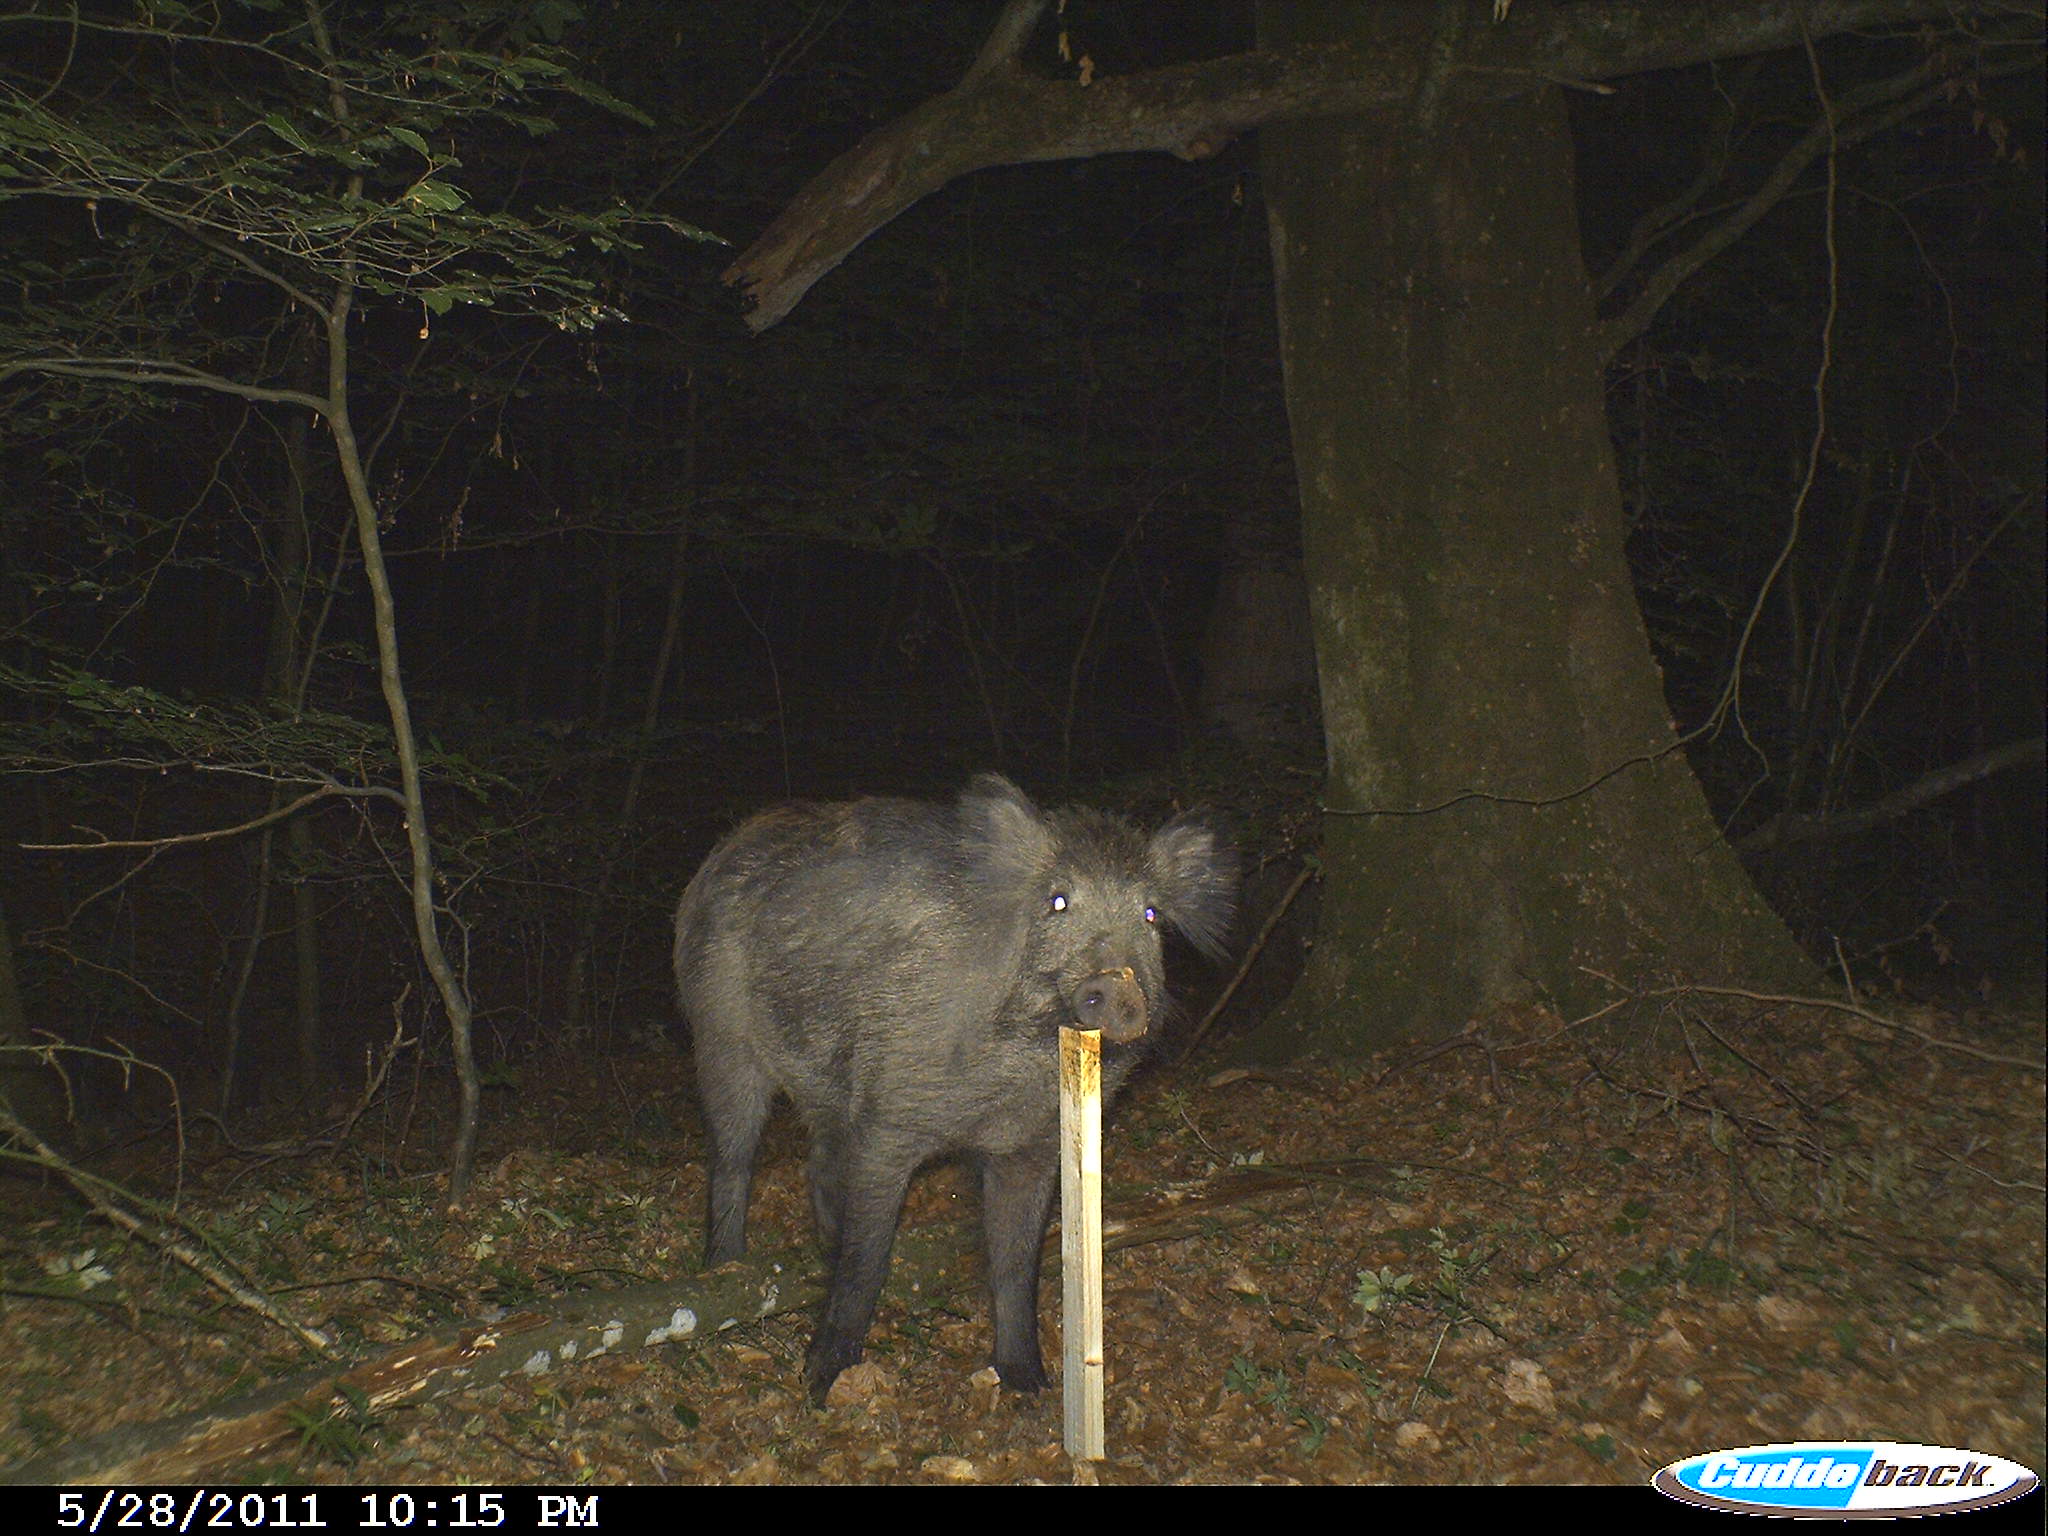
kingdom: Animalia
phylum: Chordata
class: Mammalia
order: Artiodactyla
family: Suidae
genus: Sus
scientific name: Sus scrofa
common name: Wild boar
